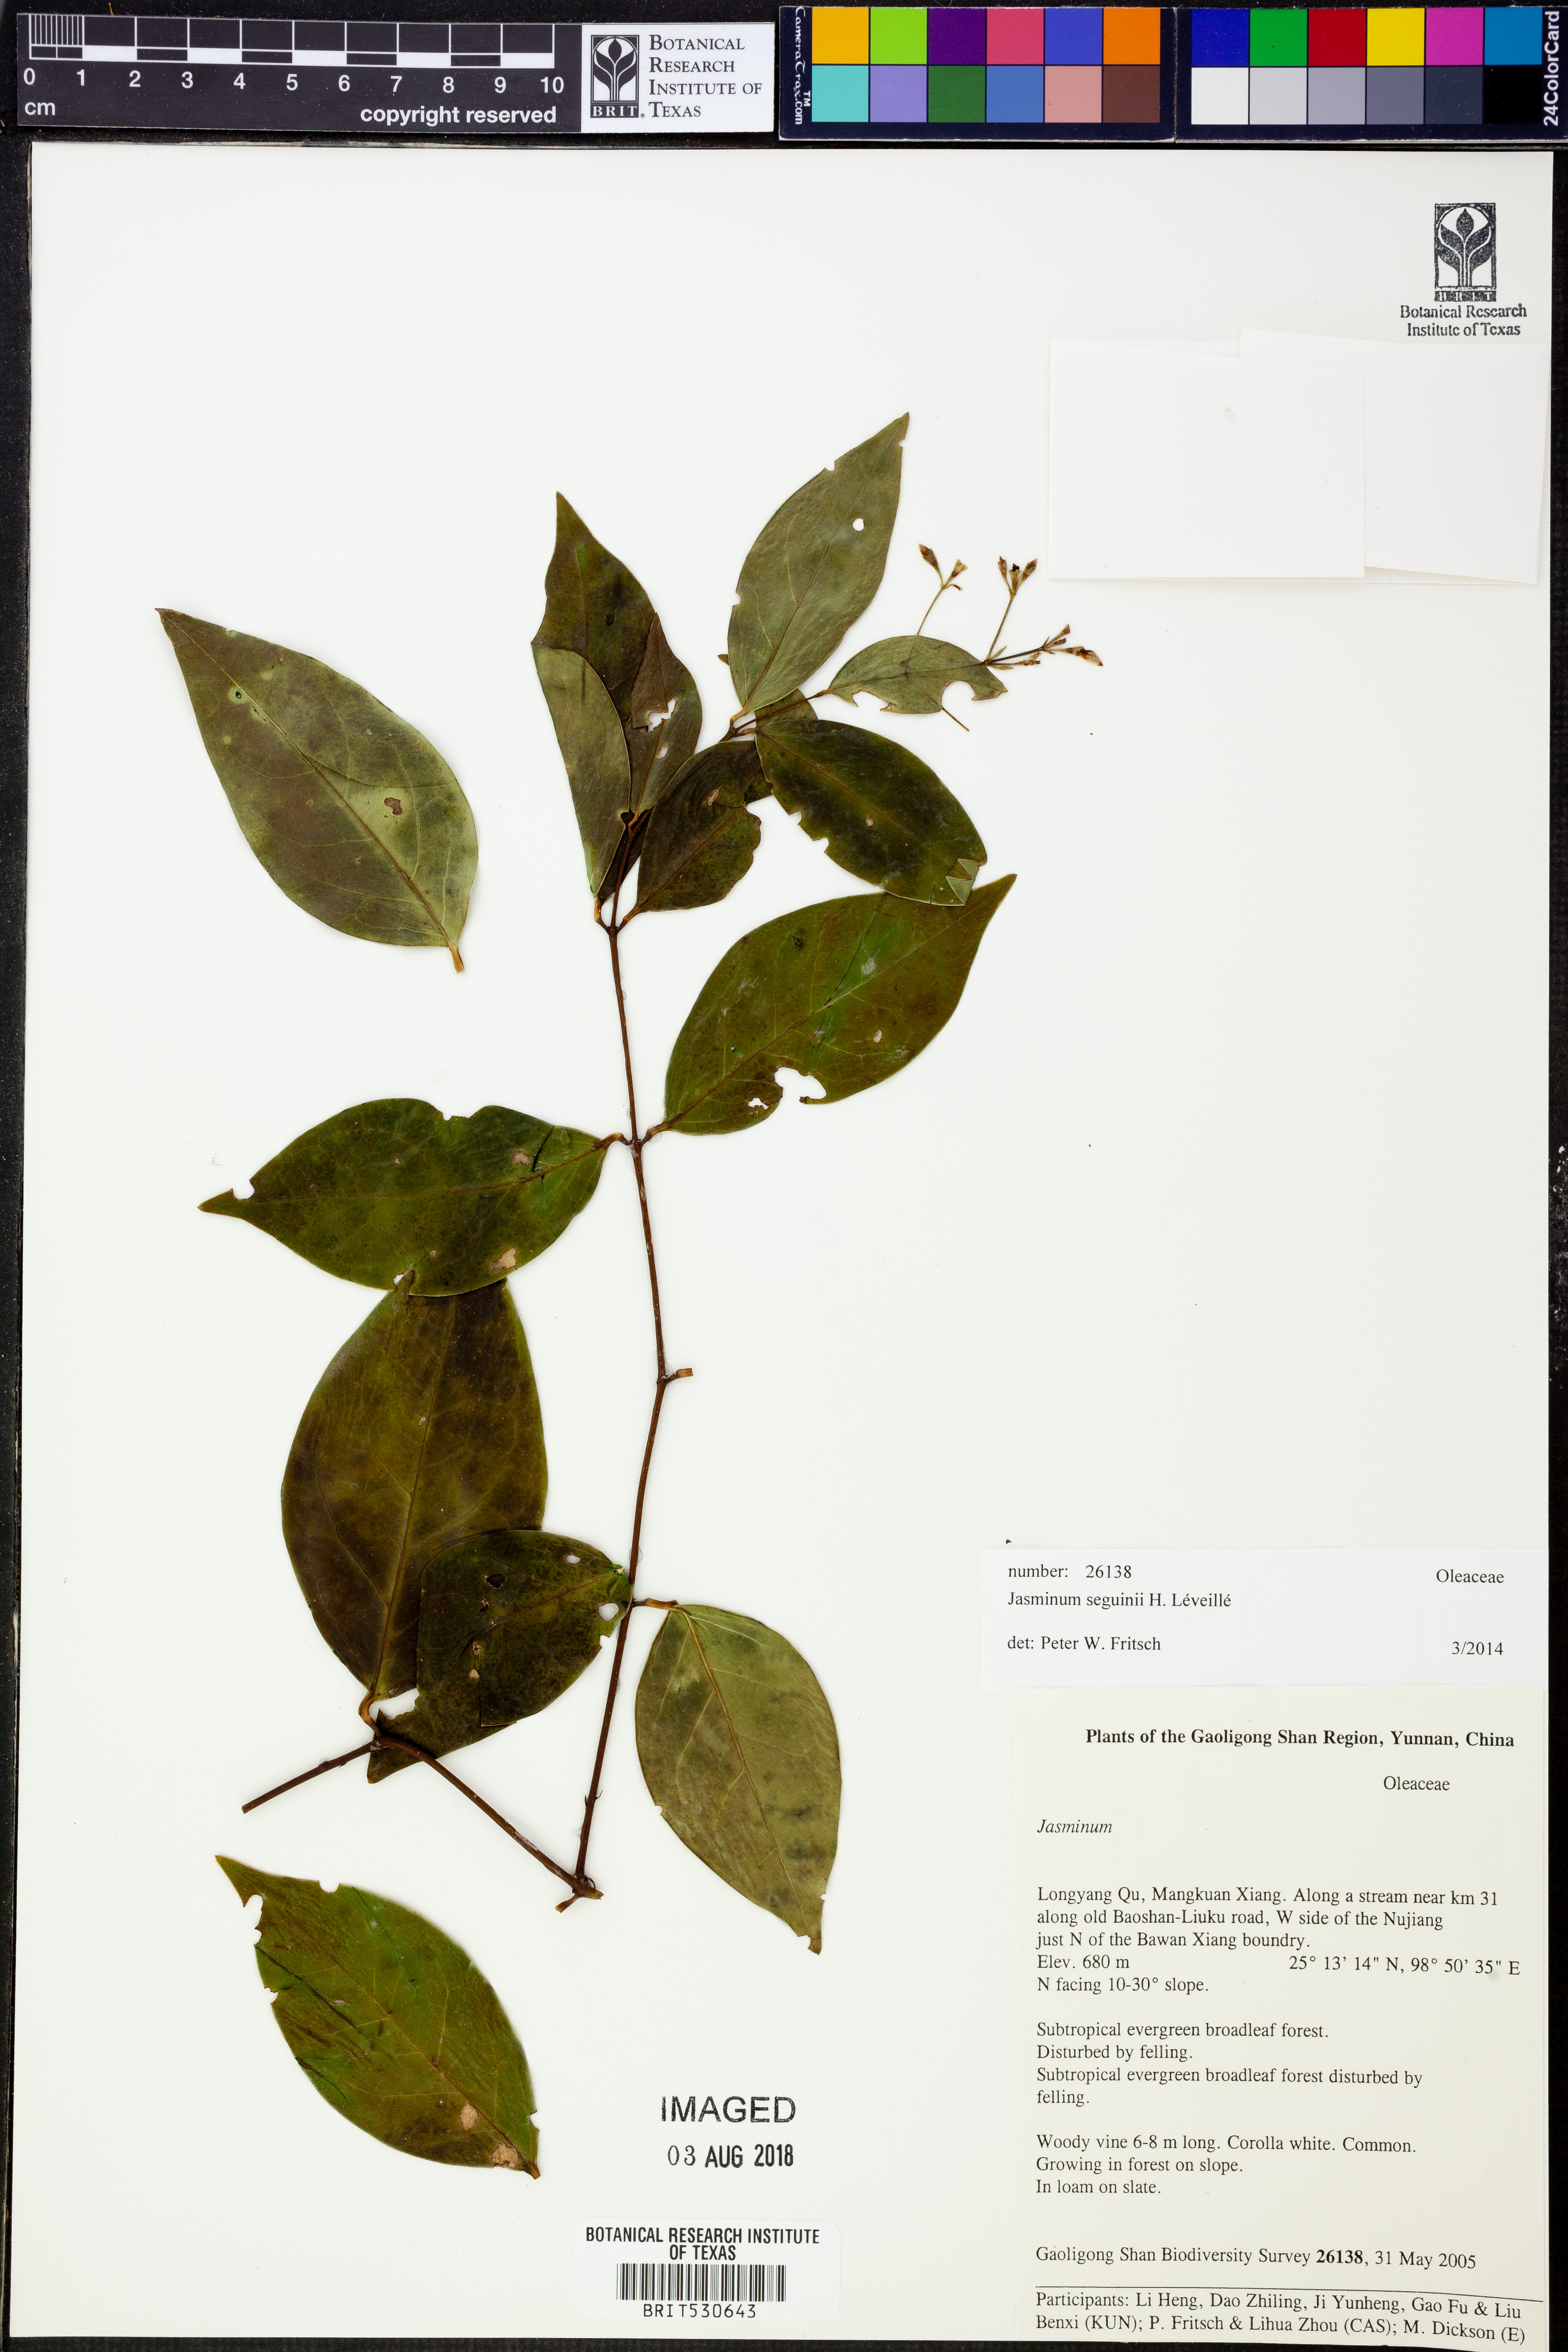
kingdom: Plantae
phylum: Tracheophyta
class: Magnoliopsida
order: Lamiales
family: Oleaceae
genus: Jasminum
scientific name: Jasminum extensum
